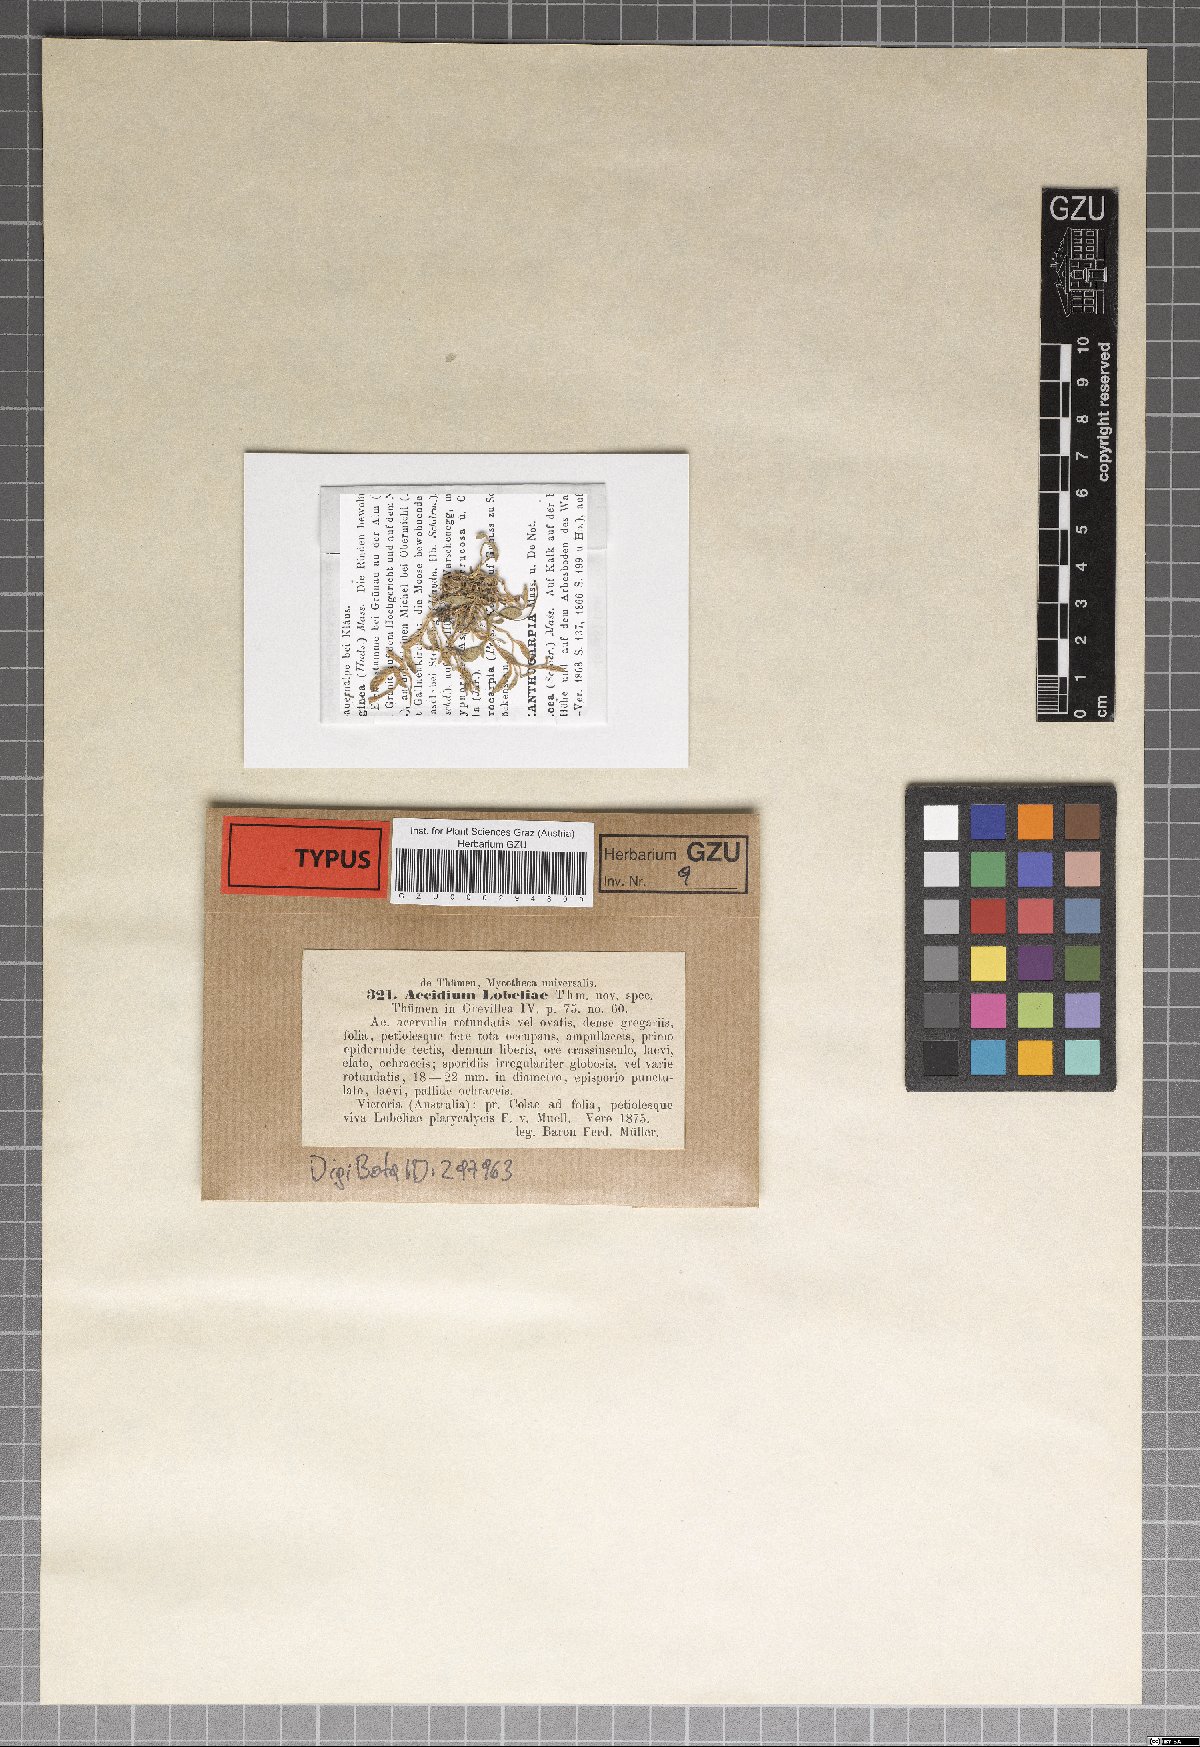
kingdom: Fungi
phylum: Basidiomycota
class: Pucciniomycetes
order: Pucciniales
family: Pucciniaceae
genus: Aecidium
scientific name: Aecidium
